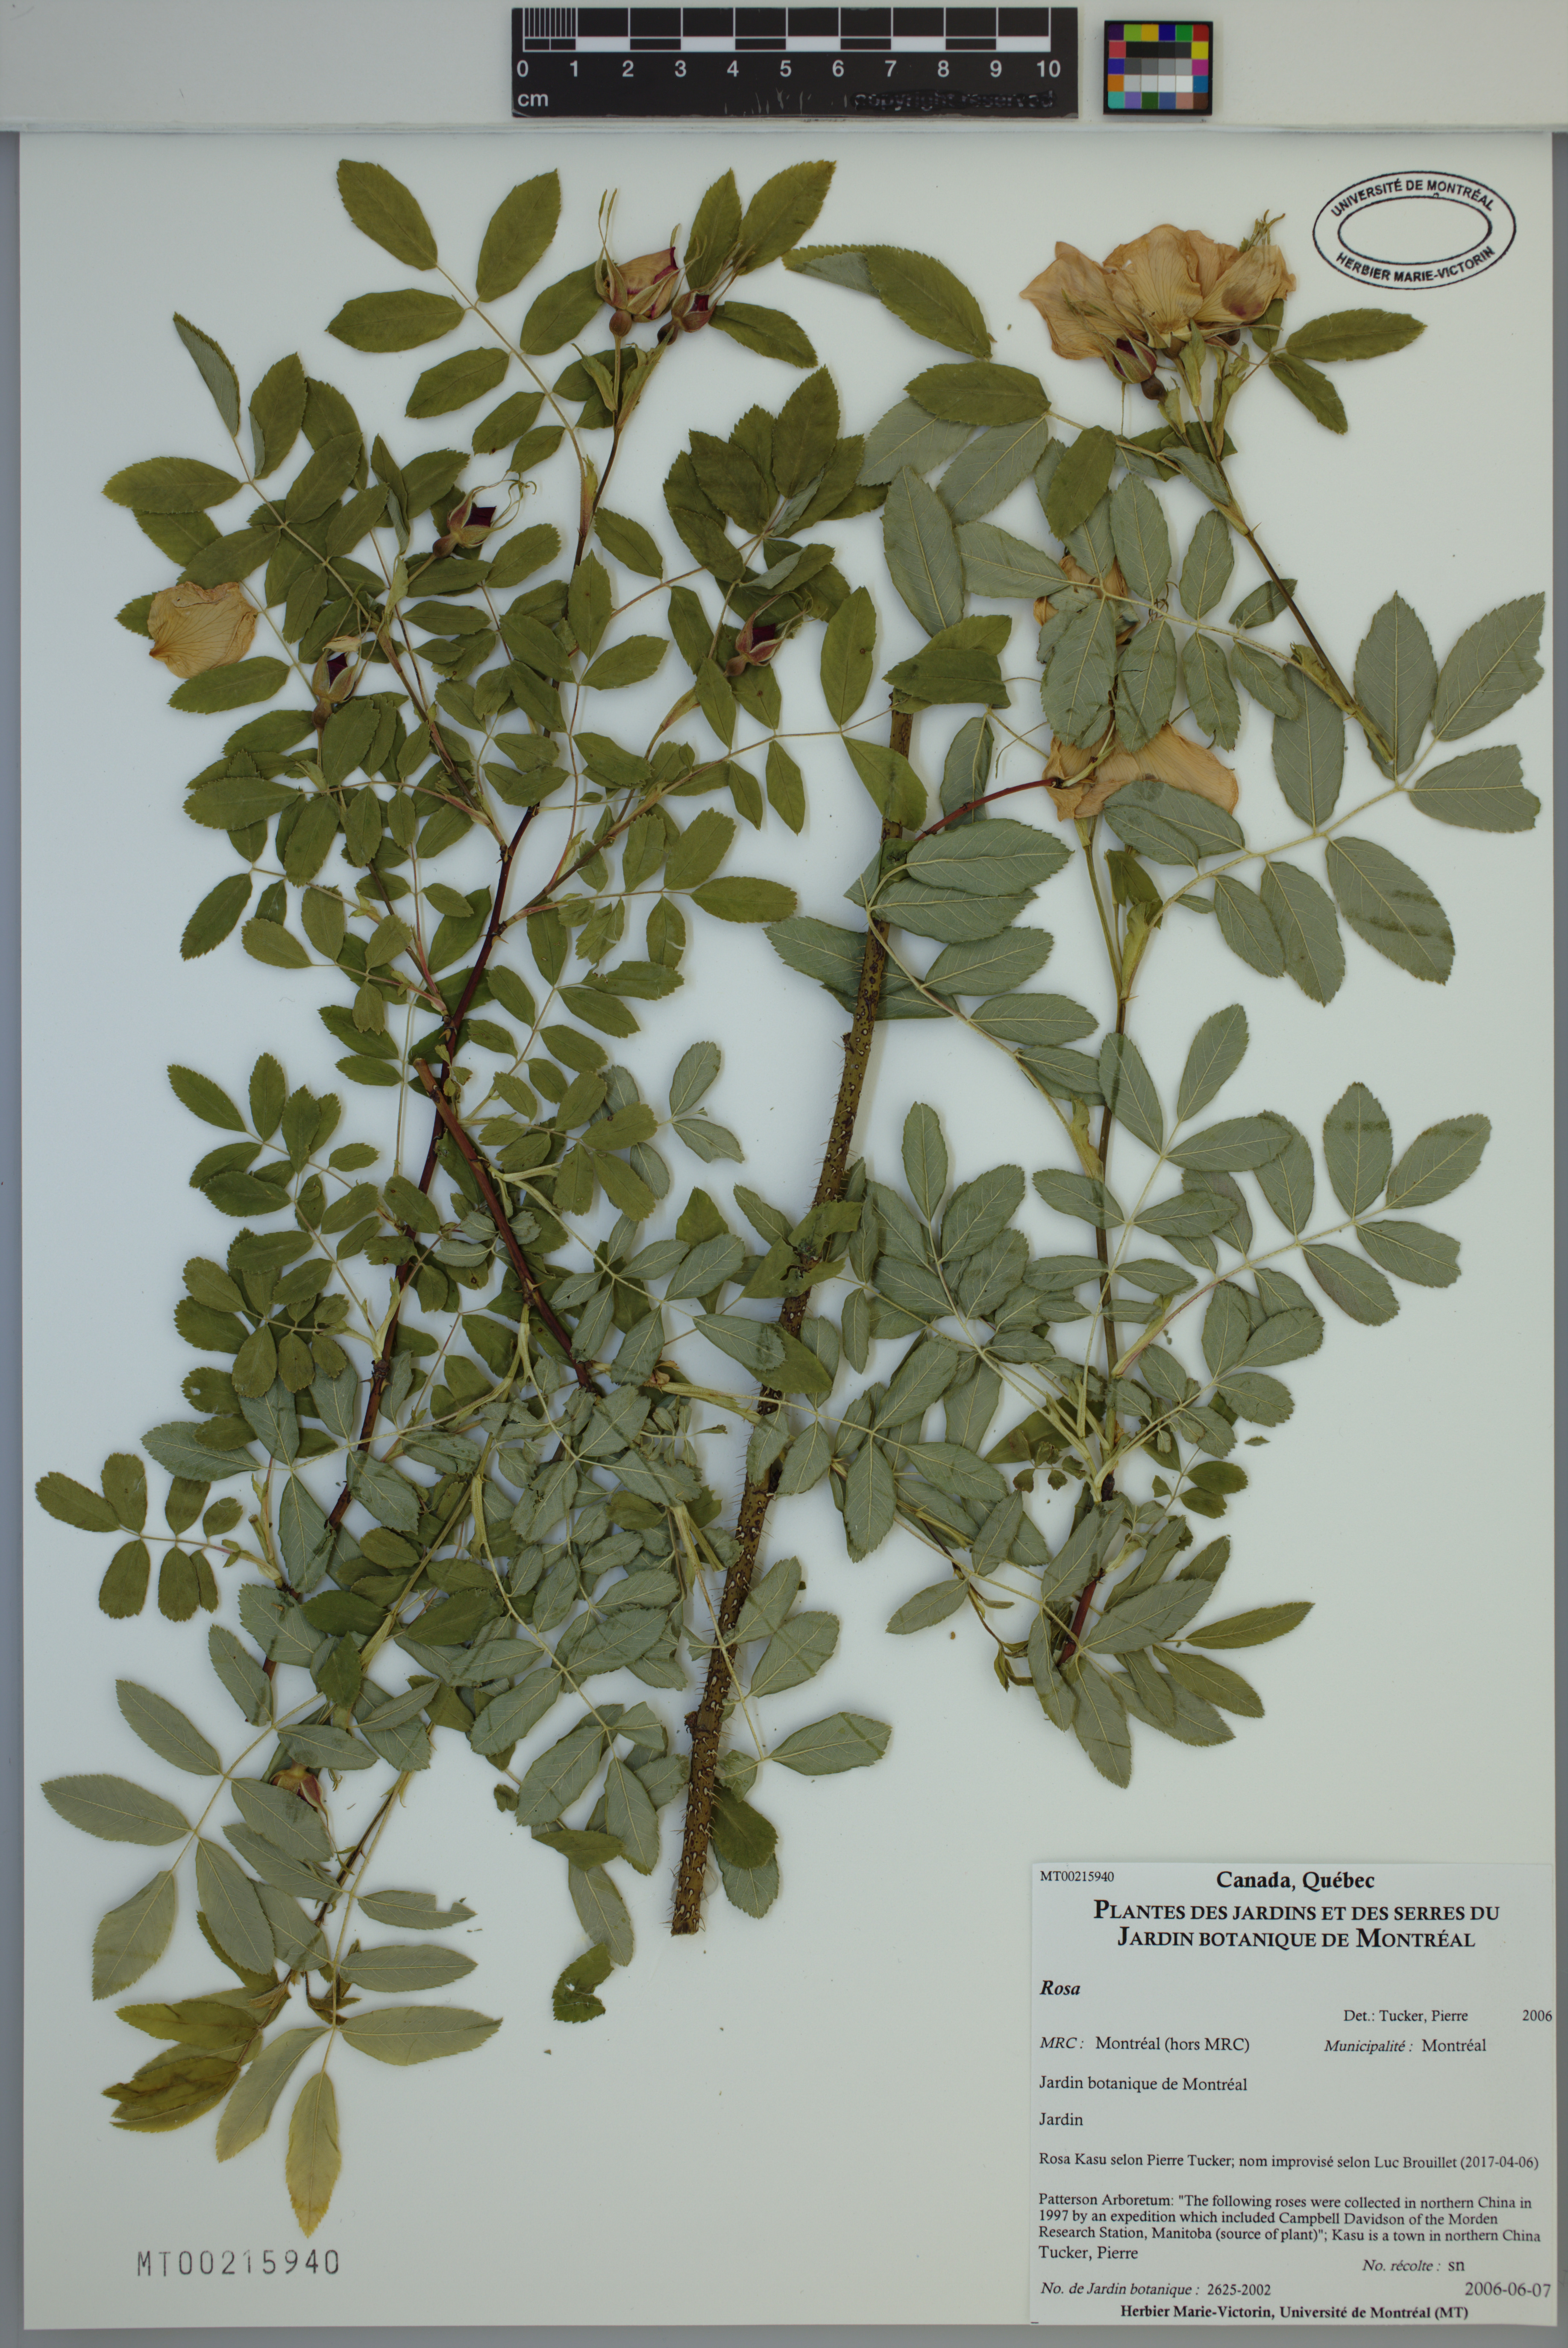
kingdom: Plantae
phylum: Tracheophyta
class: Magnoliopsida
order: Rosales
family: Rosaceae
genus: Rosa
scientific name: Rosa
